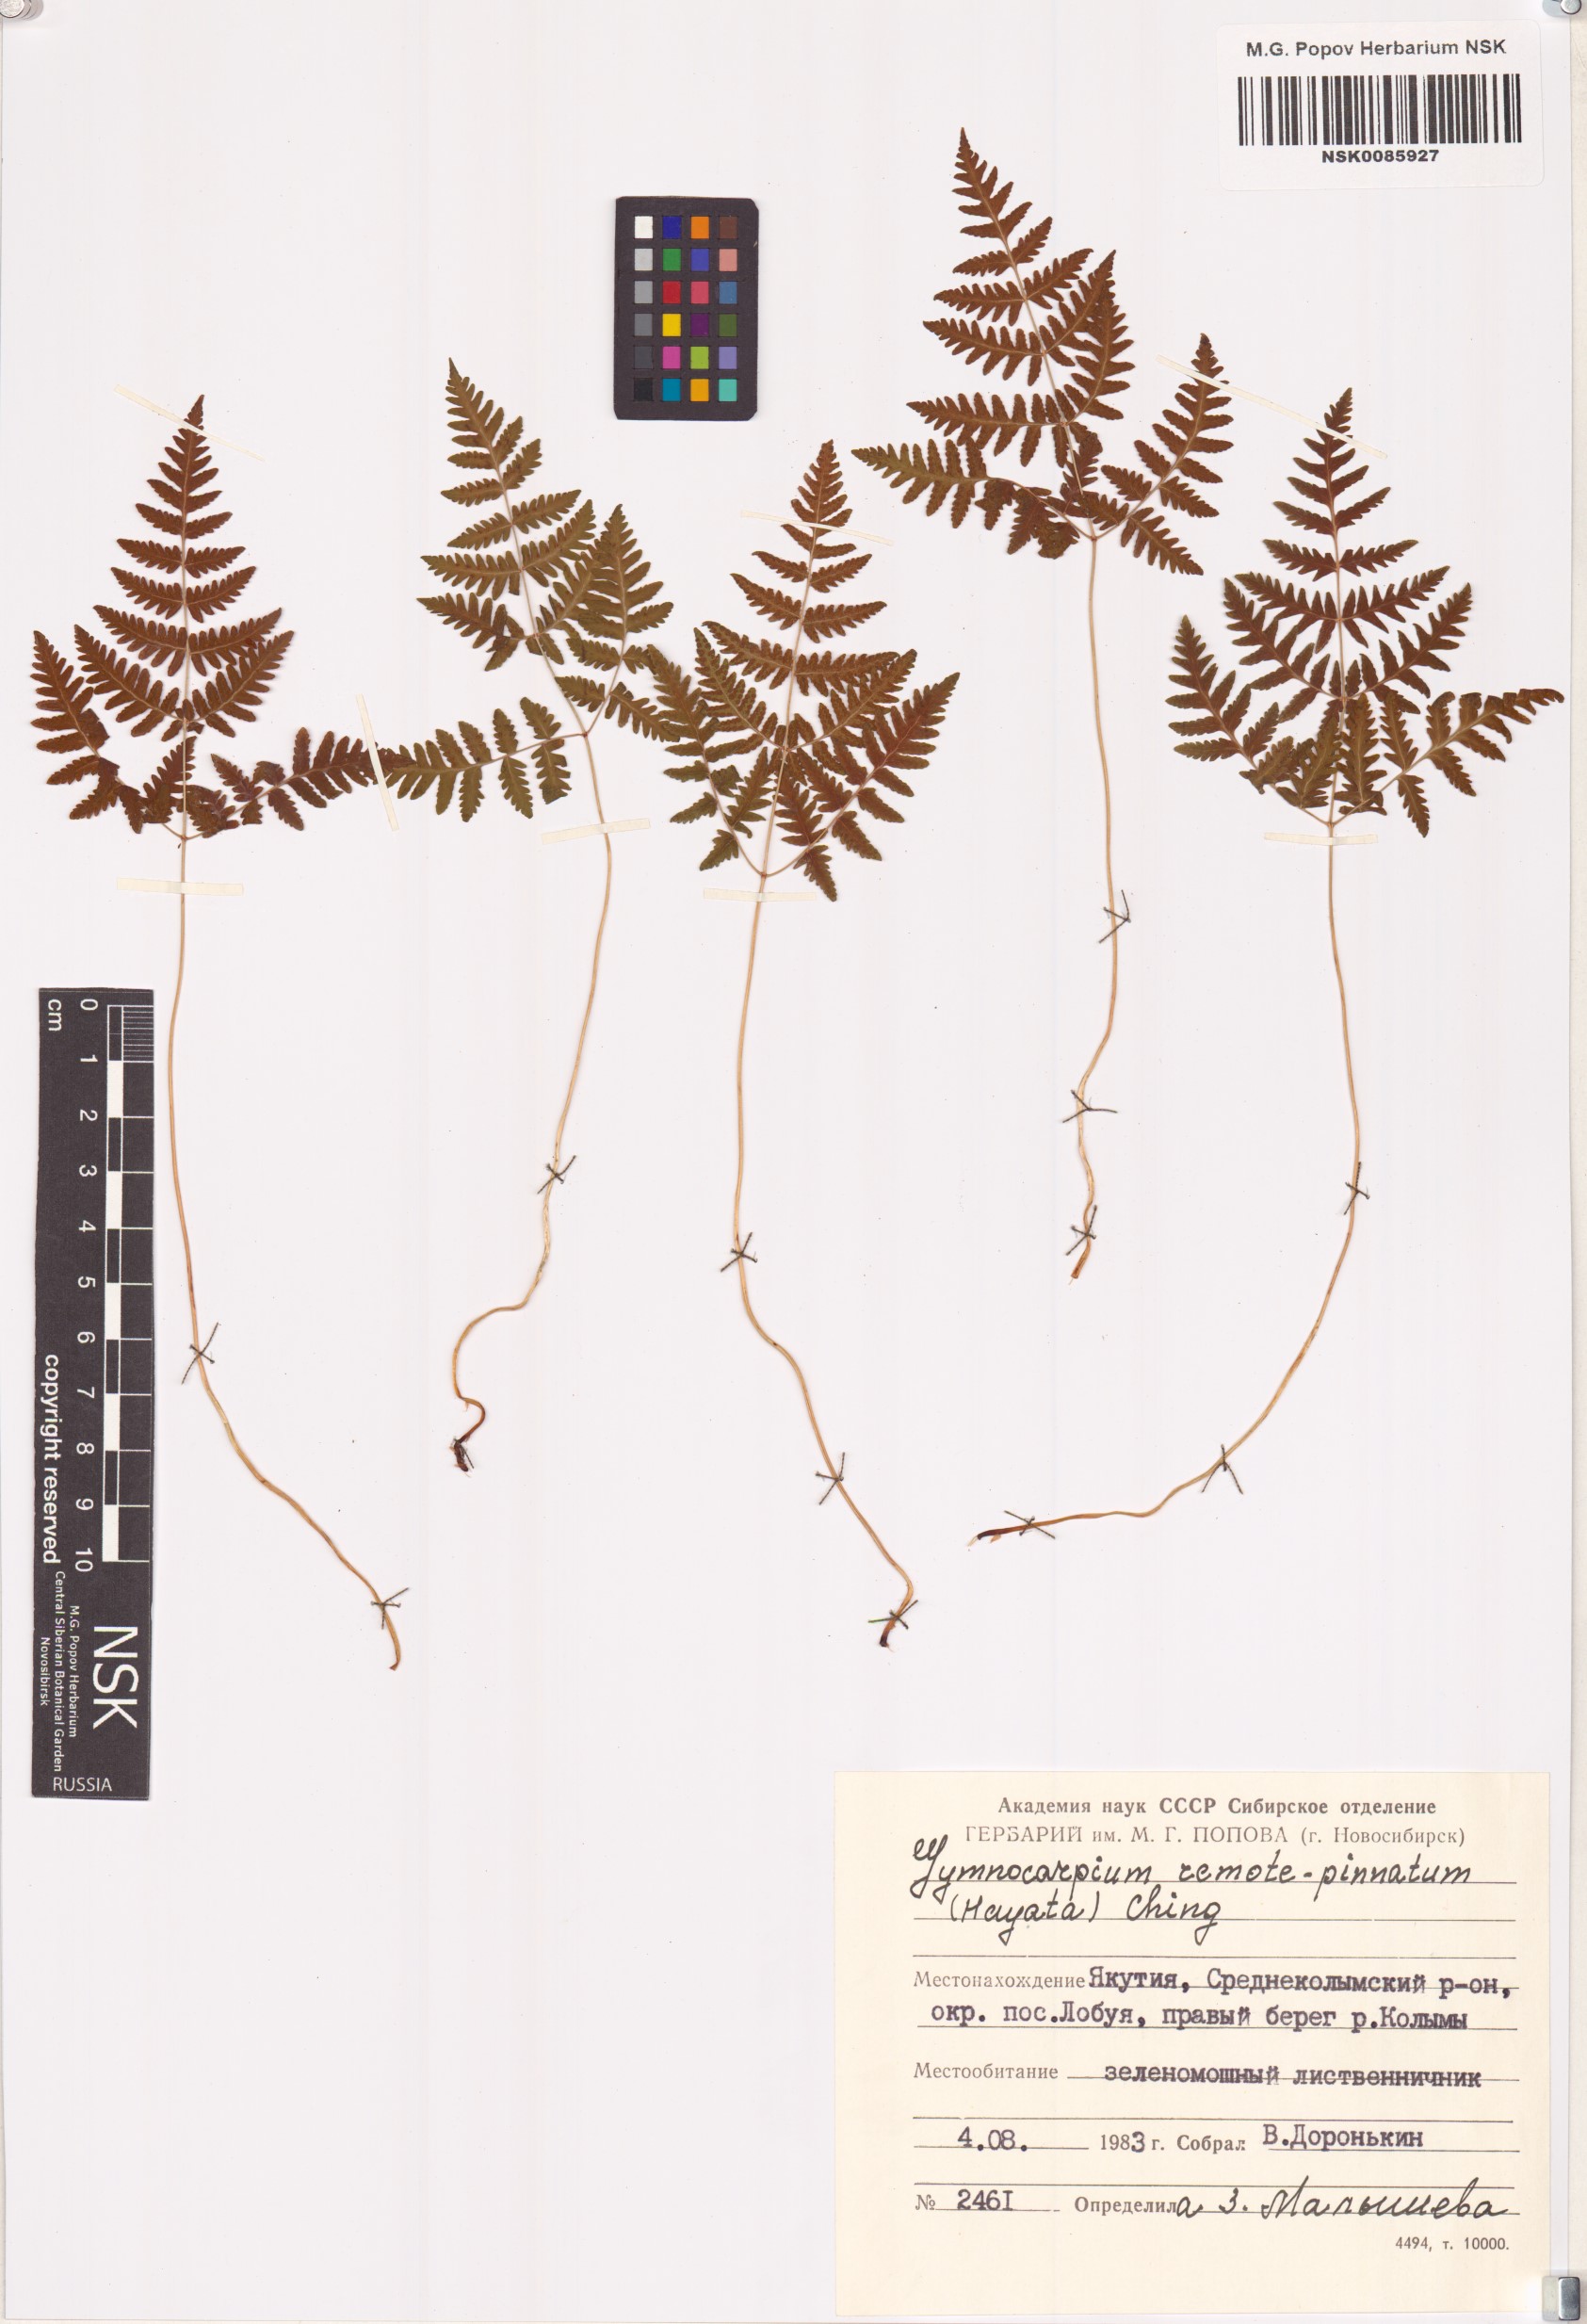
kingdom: Plantae
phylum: Tracheophyta
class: Polypodiopsida
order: Polypodiales
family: Cystopteridaceae
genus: Gymnocarpium
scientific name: Gymnocarpium remotepinnatum
